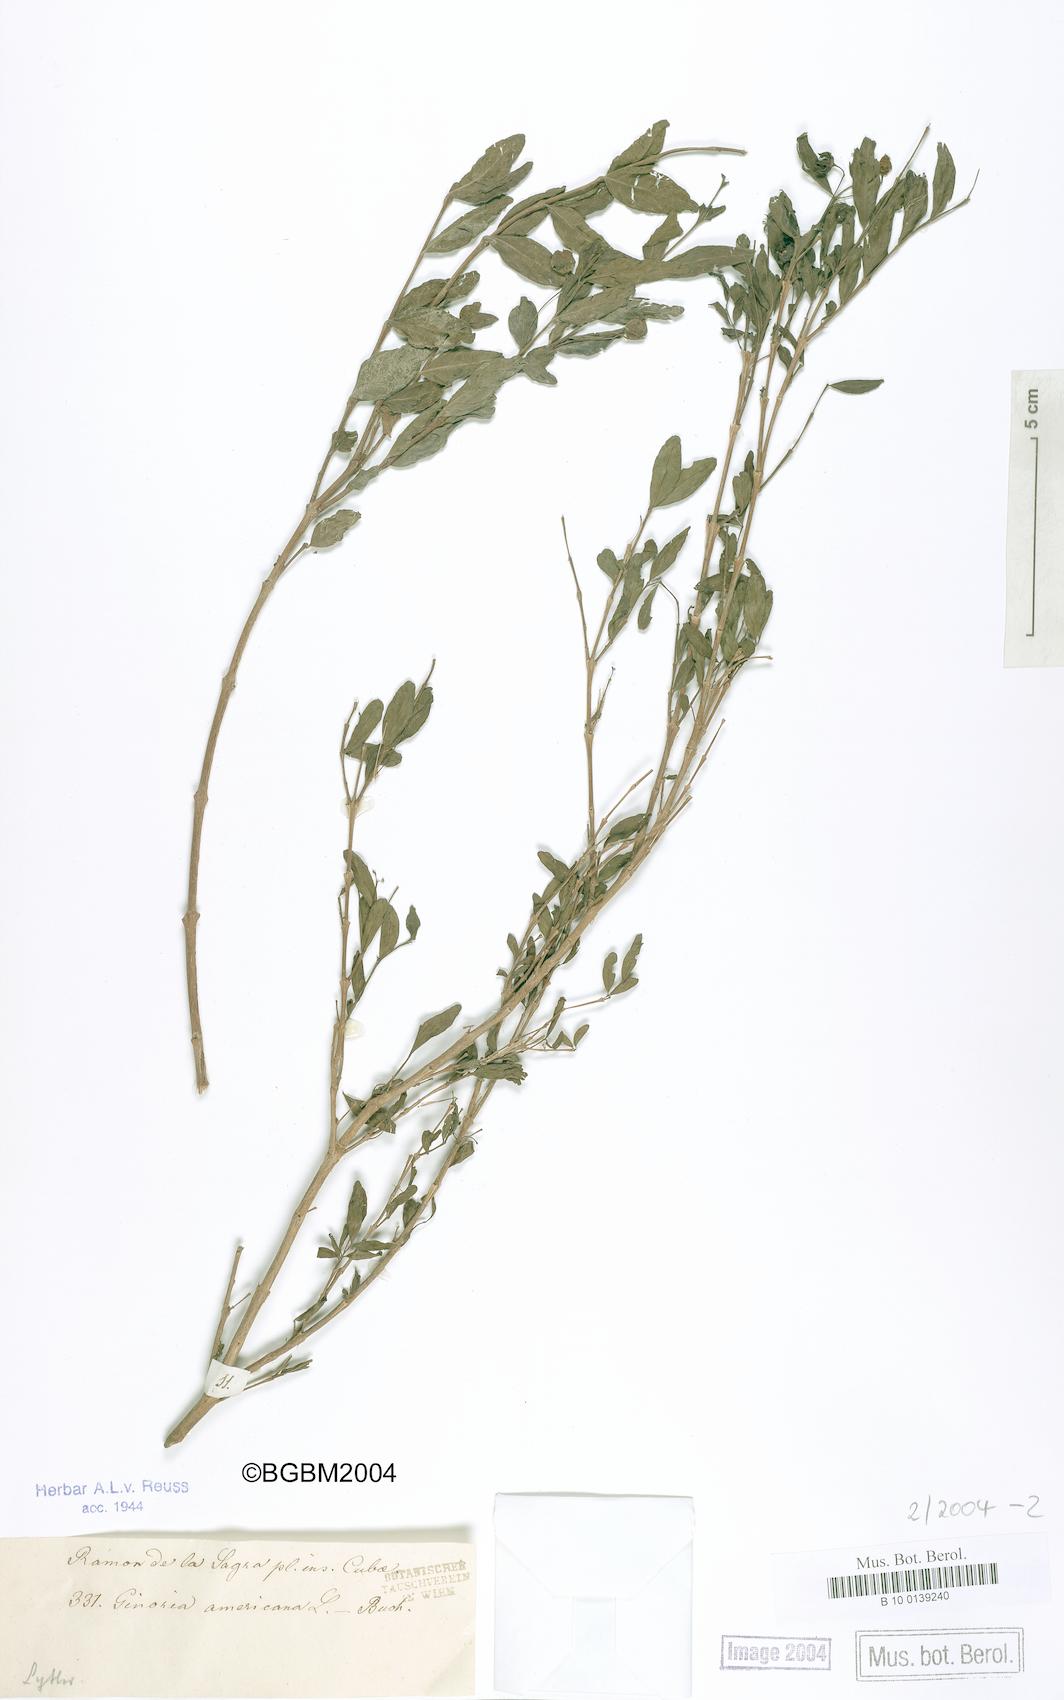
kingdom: Plantae
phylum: Tracheophyta
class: Magnoliopsida
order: Myrtales
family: Lythraceae
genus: Ginoria
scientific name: Ginoria americana
